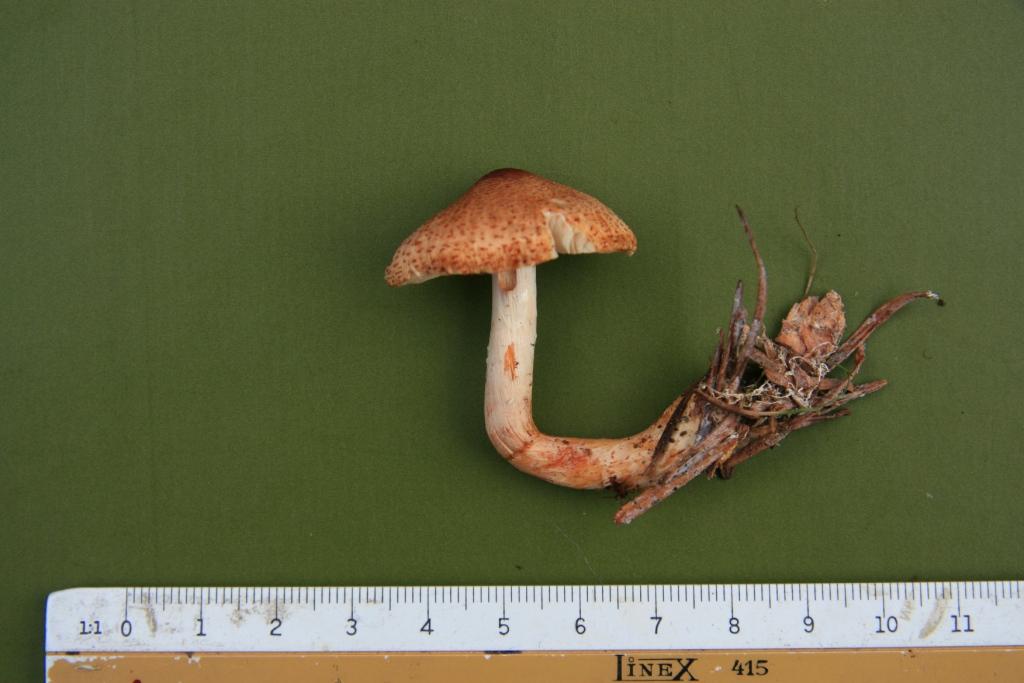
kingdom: Fungi
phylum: Basidiomycota
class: Agaricomycetes
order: Agaricales
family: Agaricaceae
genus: Lepiota
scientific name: Lepiota ochraceofulva
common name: sødtduftende parasolhat
